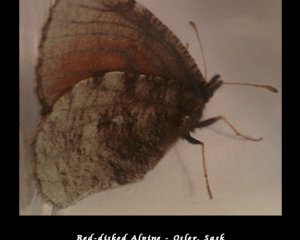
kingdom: Animalia
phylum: Arthropoda
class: Insecta
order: Lepidoptera
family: Nymphalidae
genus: Erebia
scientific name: Erebia discoidalis
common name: Red-disked Alpine
